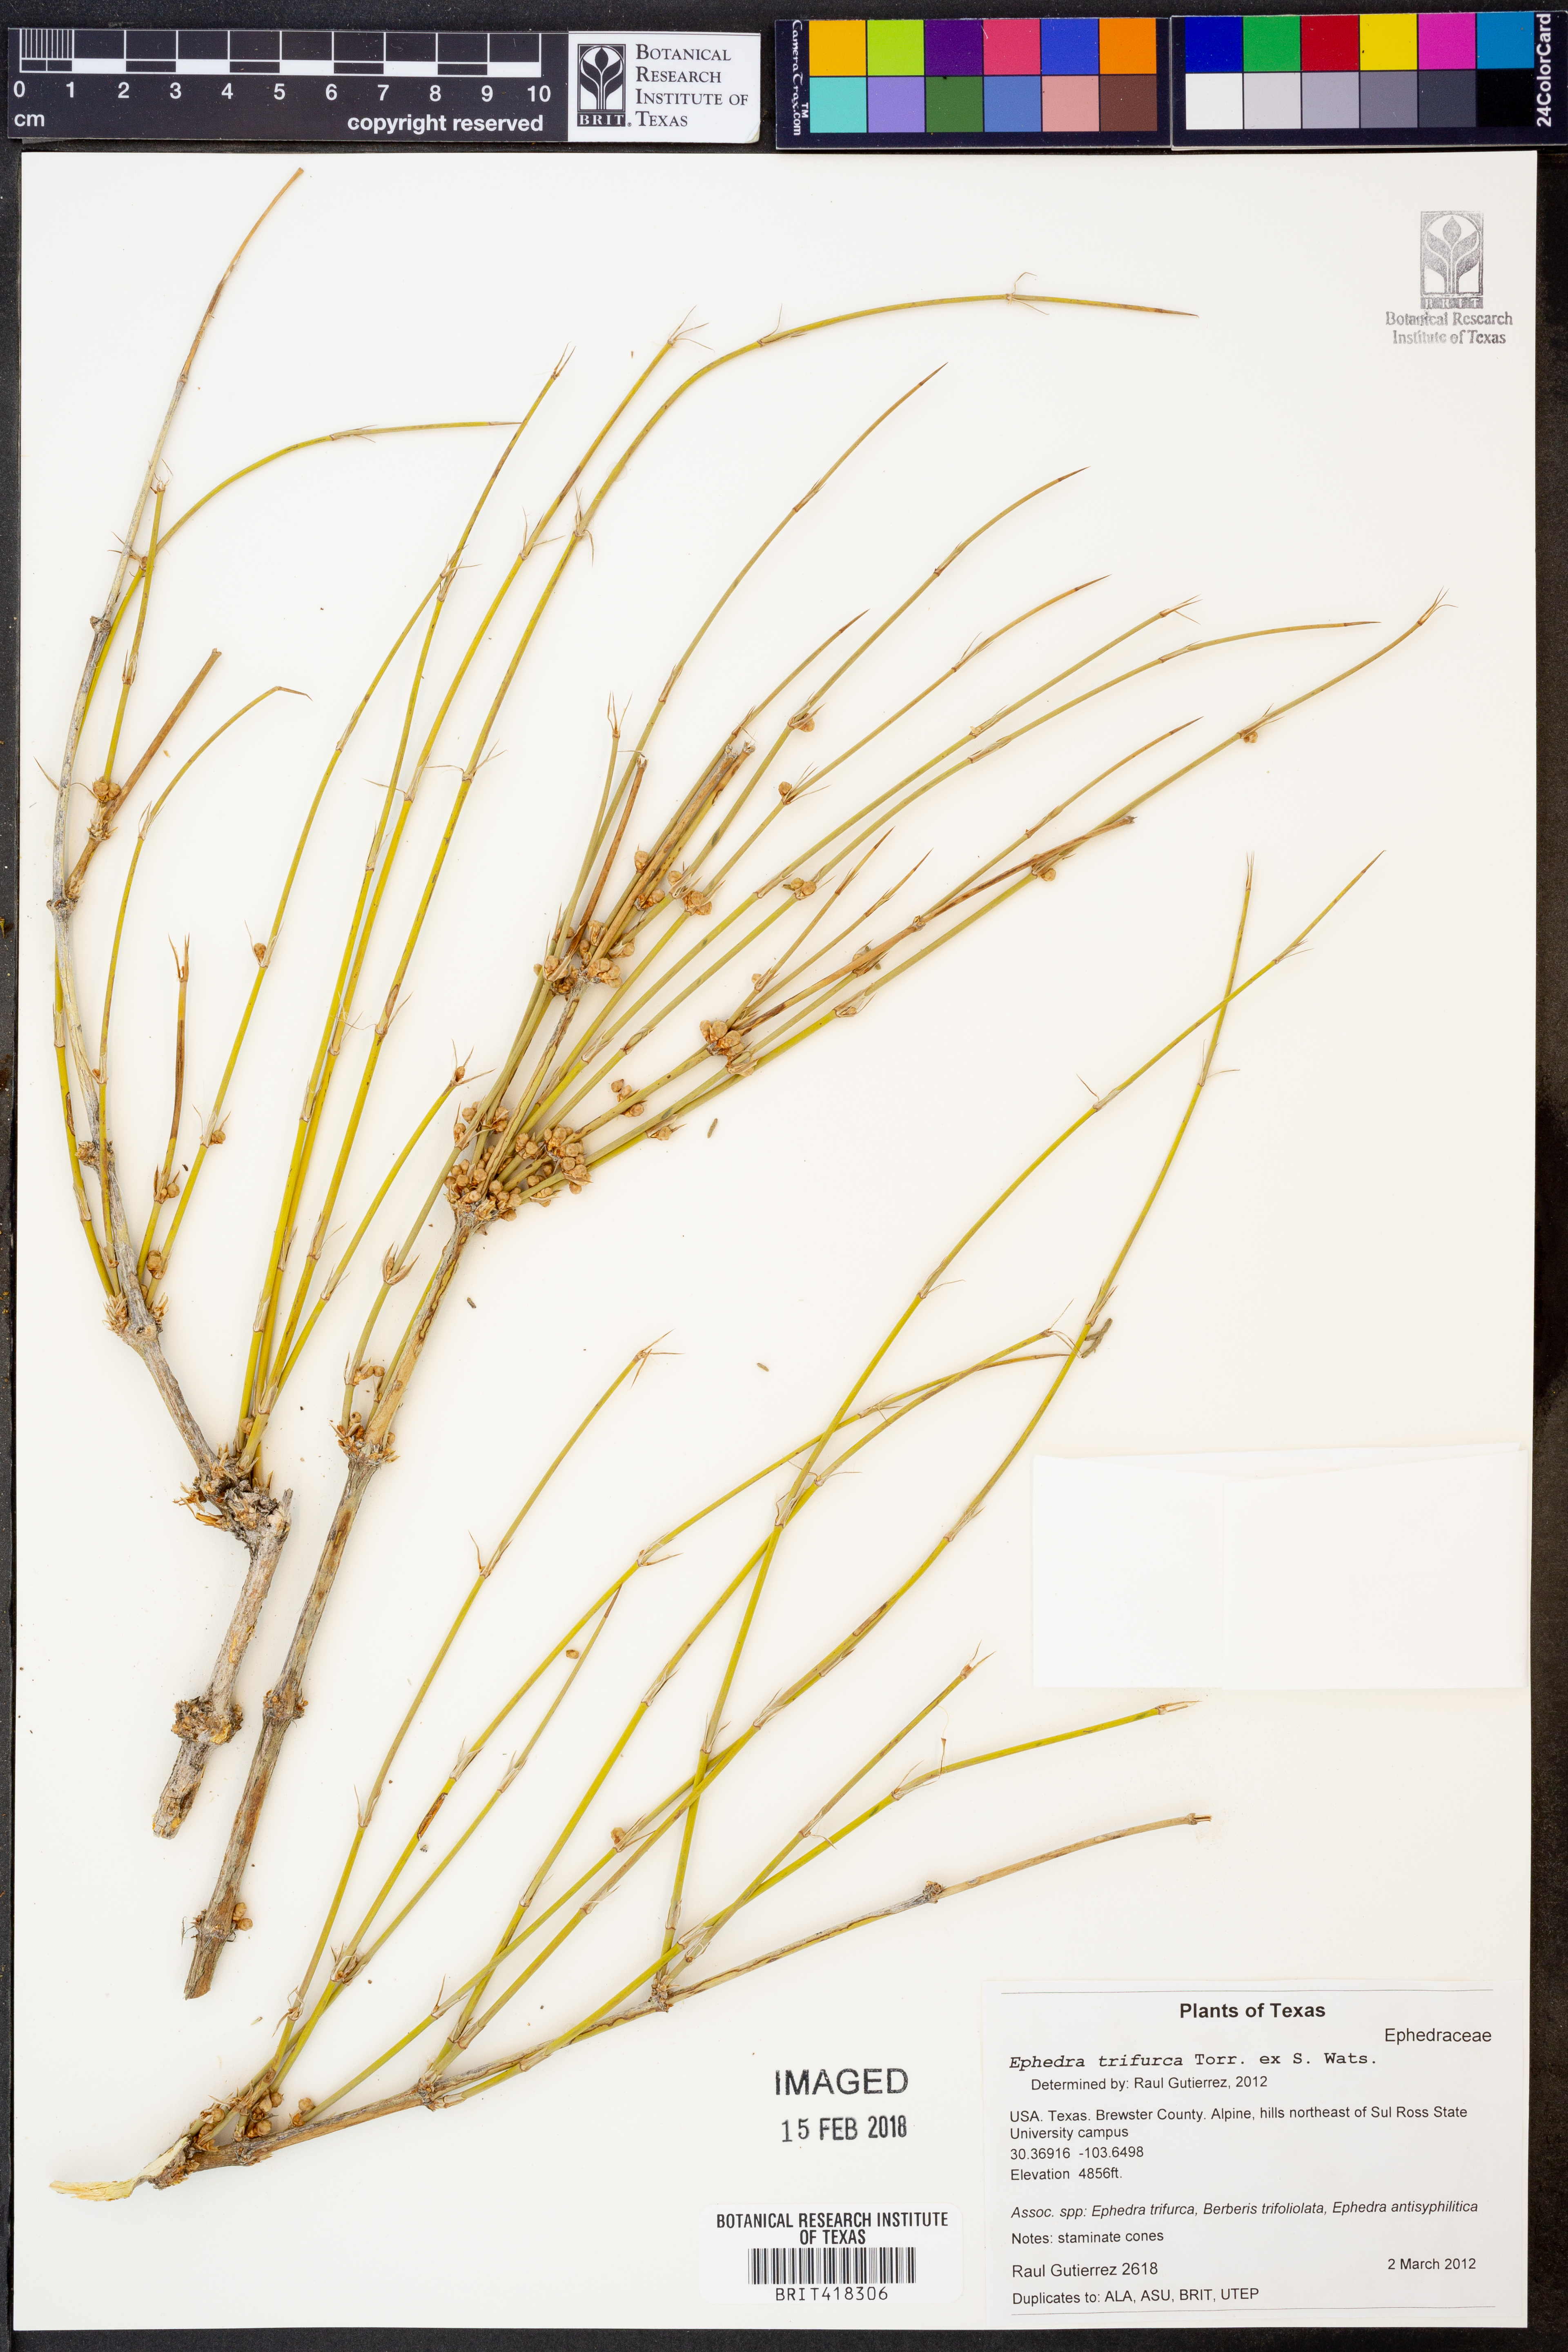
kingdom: Plantae
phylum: Tracheophyta
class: Gnetopsida
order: Ephedrales
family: Ephedraceae
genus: Ephedra
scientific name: Ephedra trifurca
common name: Mexican-tea
